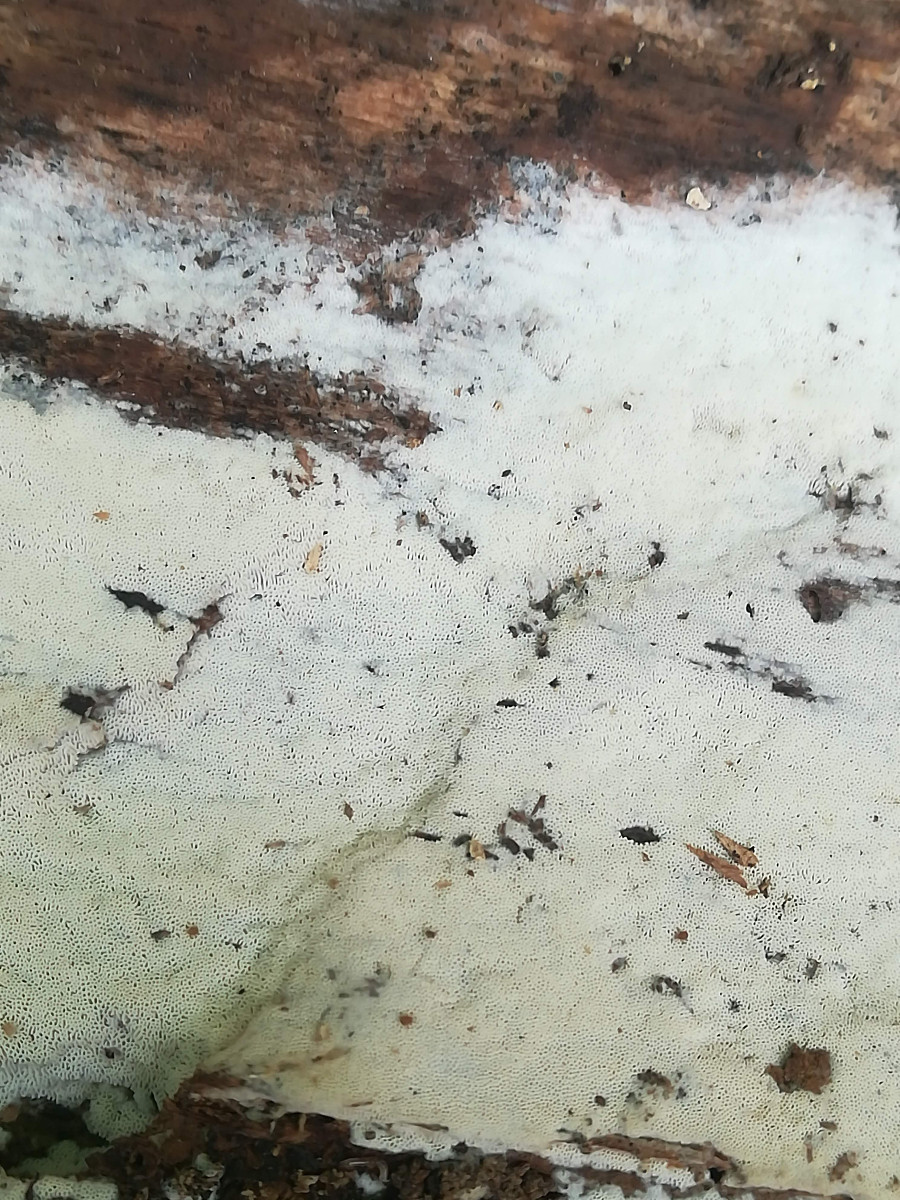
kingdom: Fungi
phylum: Basidiomycota
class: Agaricomycetes
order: Polyporales
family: Irpicaceae
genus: Ceriporia
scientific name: Ceriporia viridans
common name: foranderlig voksporesvamp
